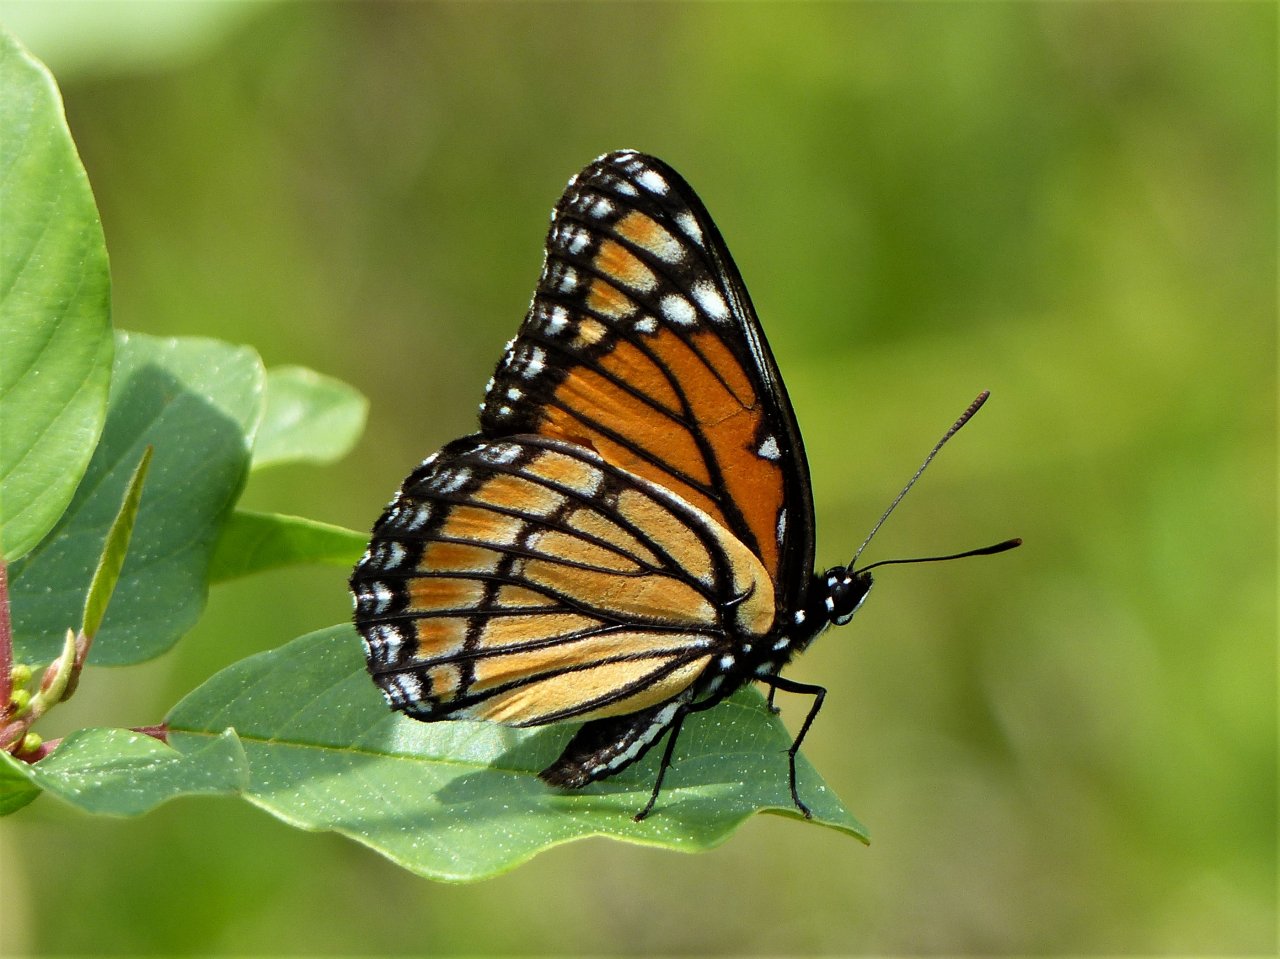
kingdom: Animalia
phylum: Arthropoda
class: Insecta
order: Lepidoptera
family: Nymphalidae
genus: Limenitis
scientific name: Limenitis archippus
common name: Viceroy
